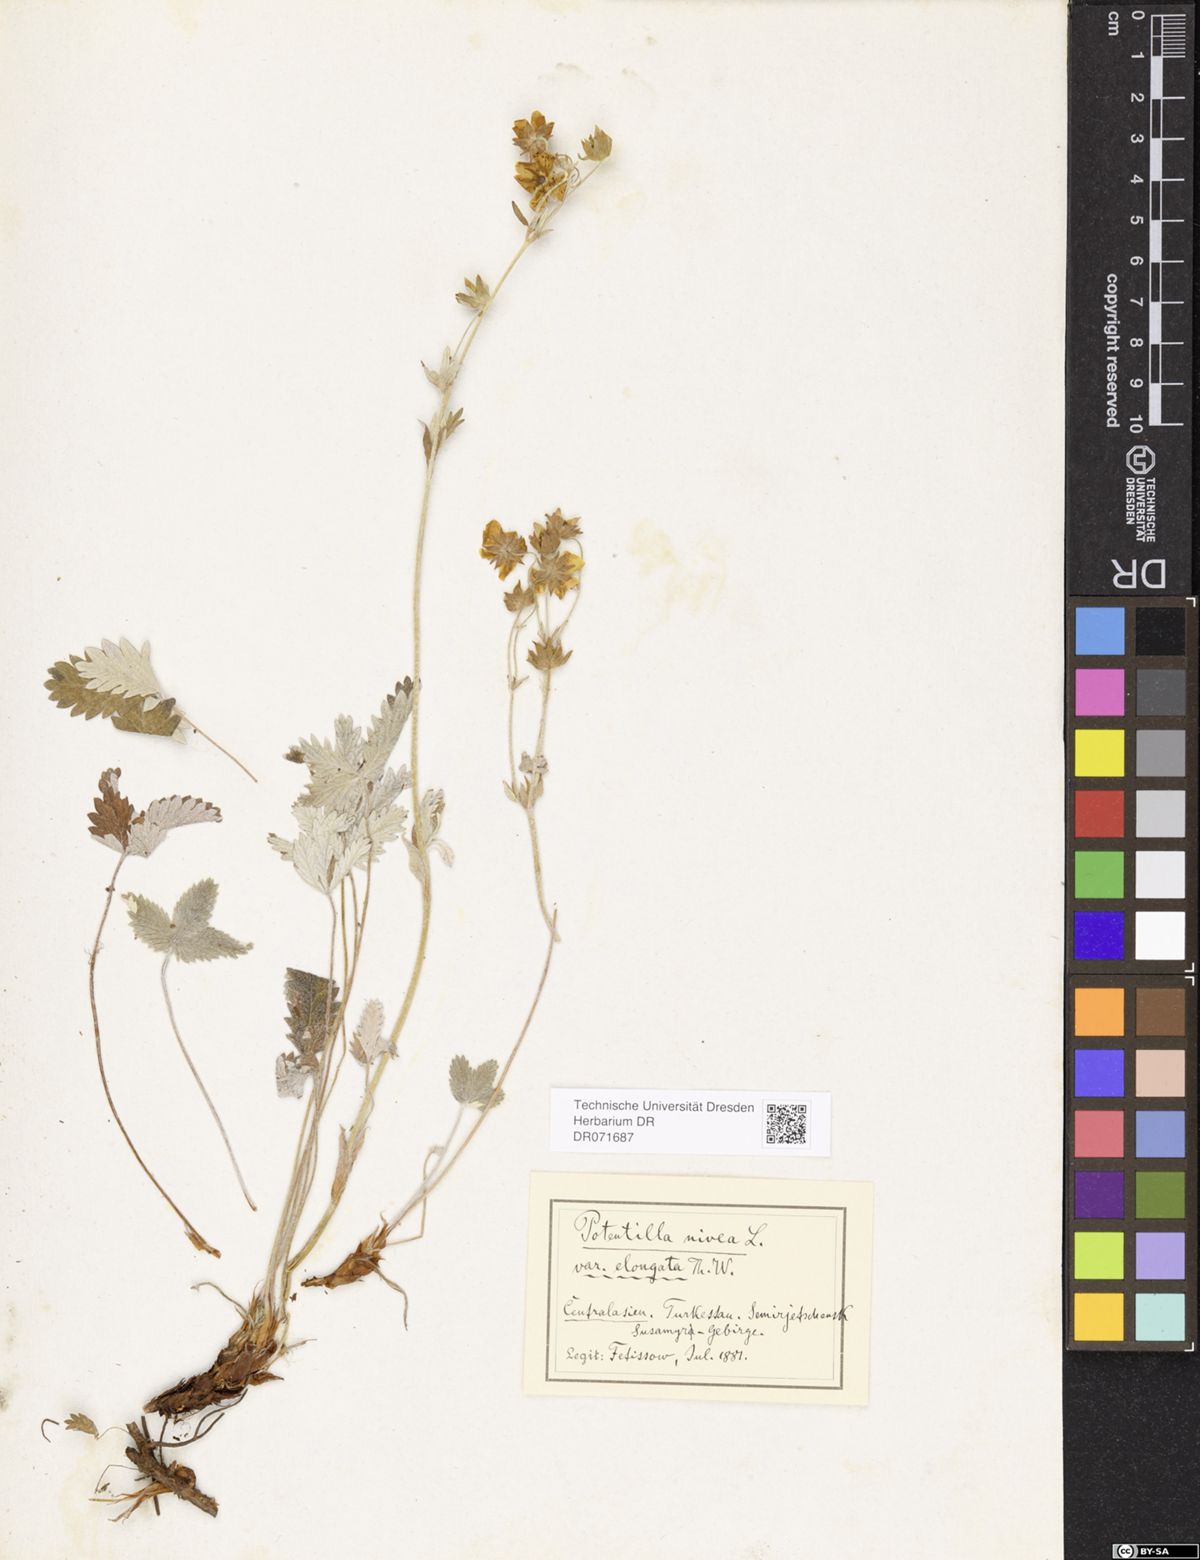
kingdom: Plantae
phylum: Tracheophyta
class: Magnoliopsida
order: Rosales
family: Rosaceae
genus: Potentilla
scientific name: Potentilla crebridens
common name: Congested cinquefoil
